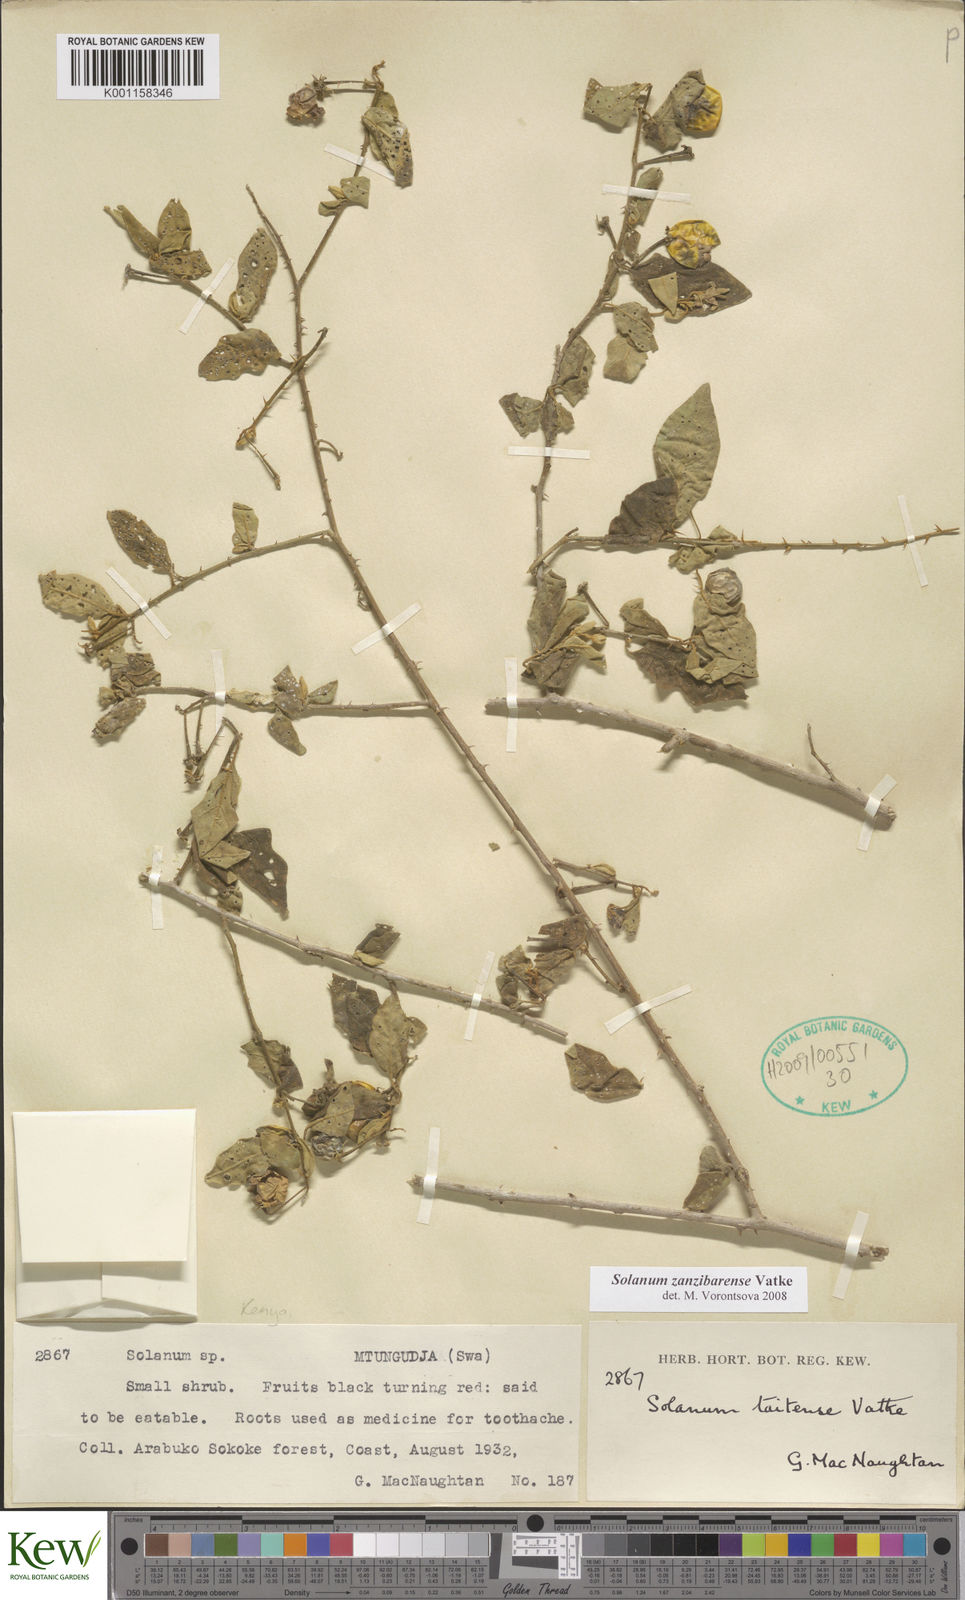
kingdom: Plantae
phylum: Tracheophyta
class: Magnoliopsida
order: Solanales
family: Solanaceae
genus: Solanum
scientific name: Solanum zanzibarense
